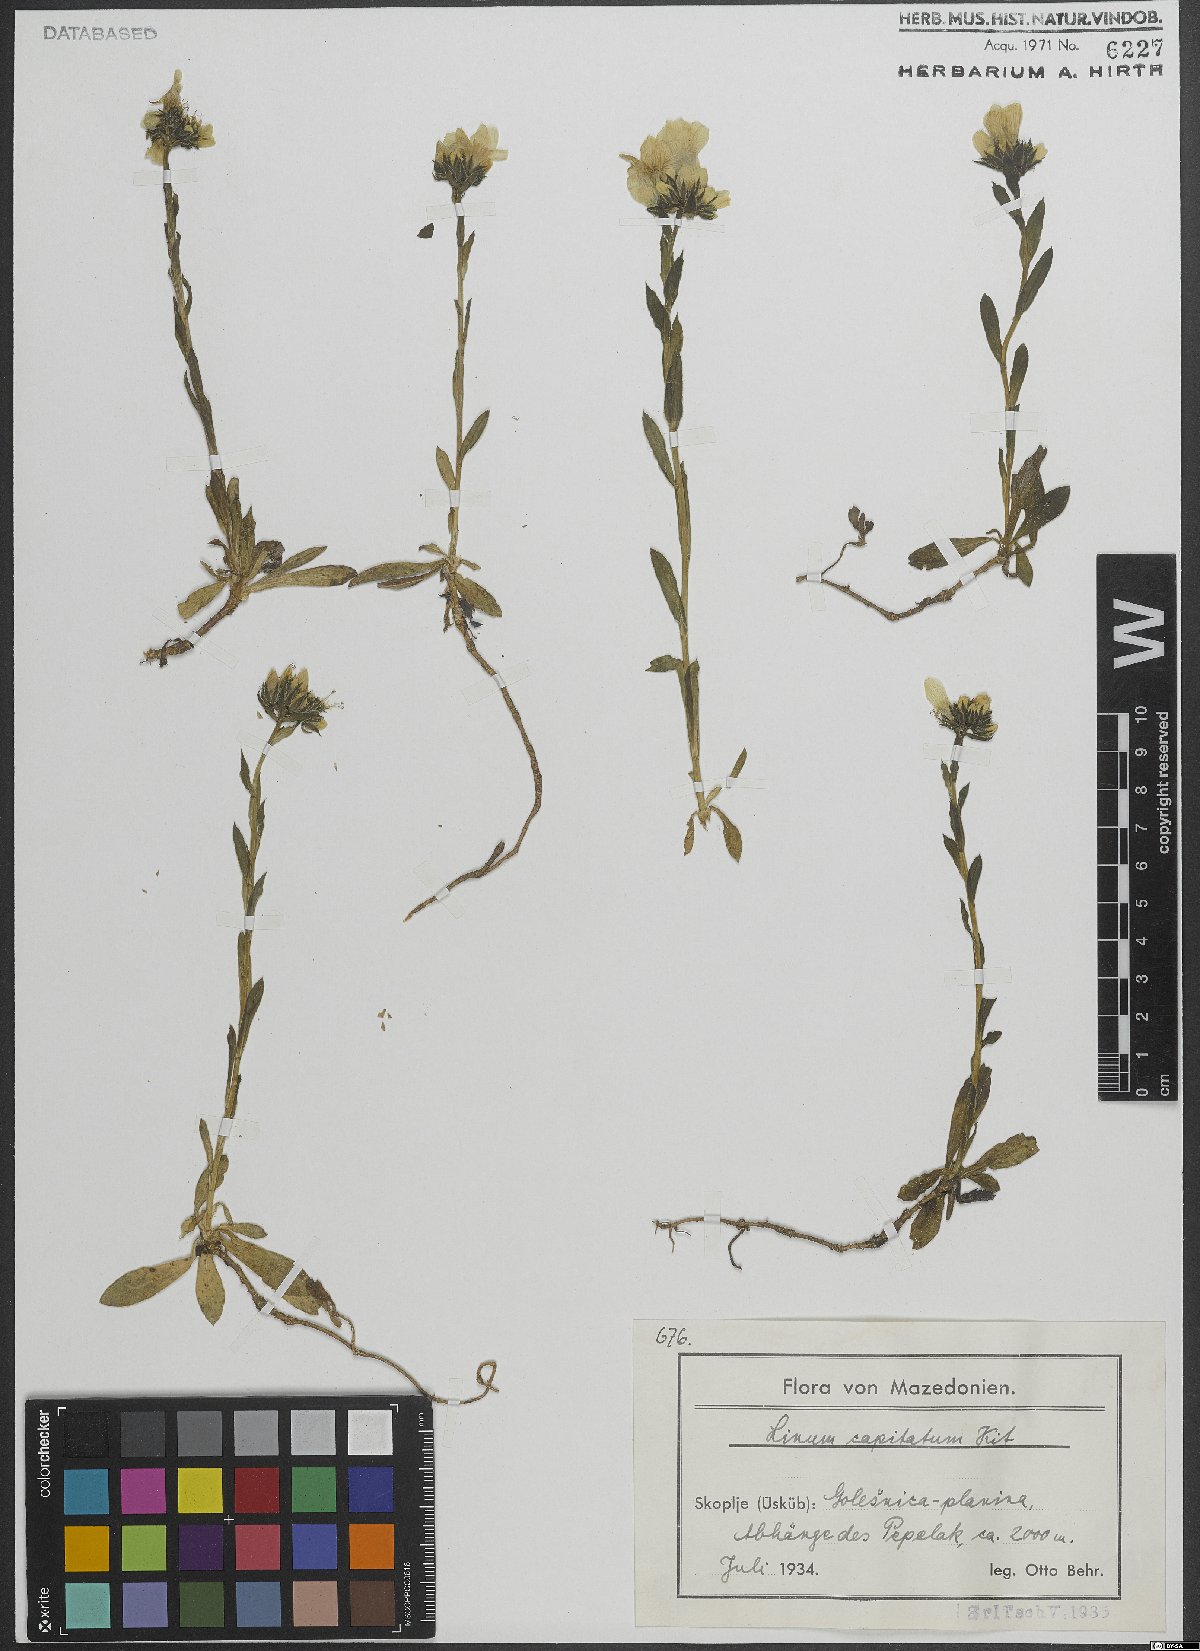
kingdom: Plantae
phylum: Tracheophyta
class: Magnoliopsida
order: Malpighiales
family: Linaceae
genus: Linum
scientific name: Linum capitatum
